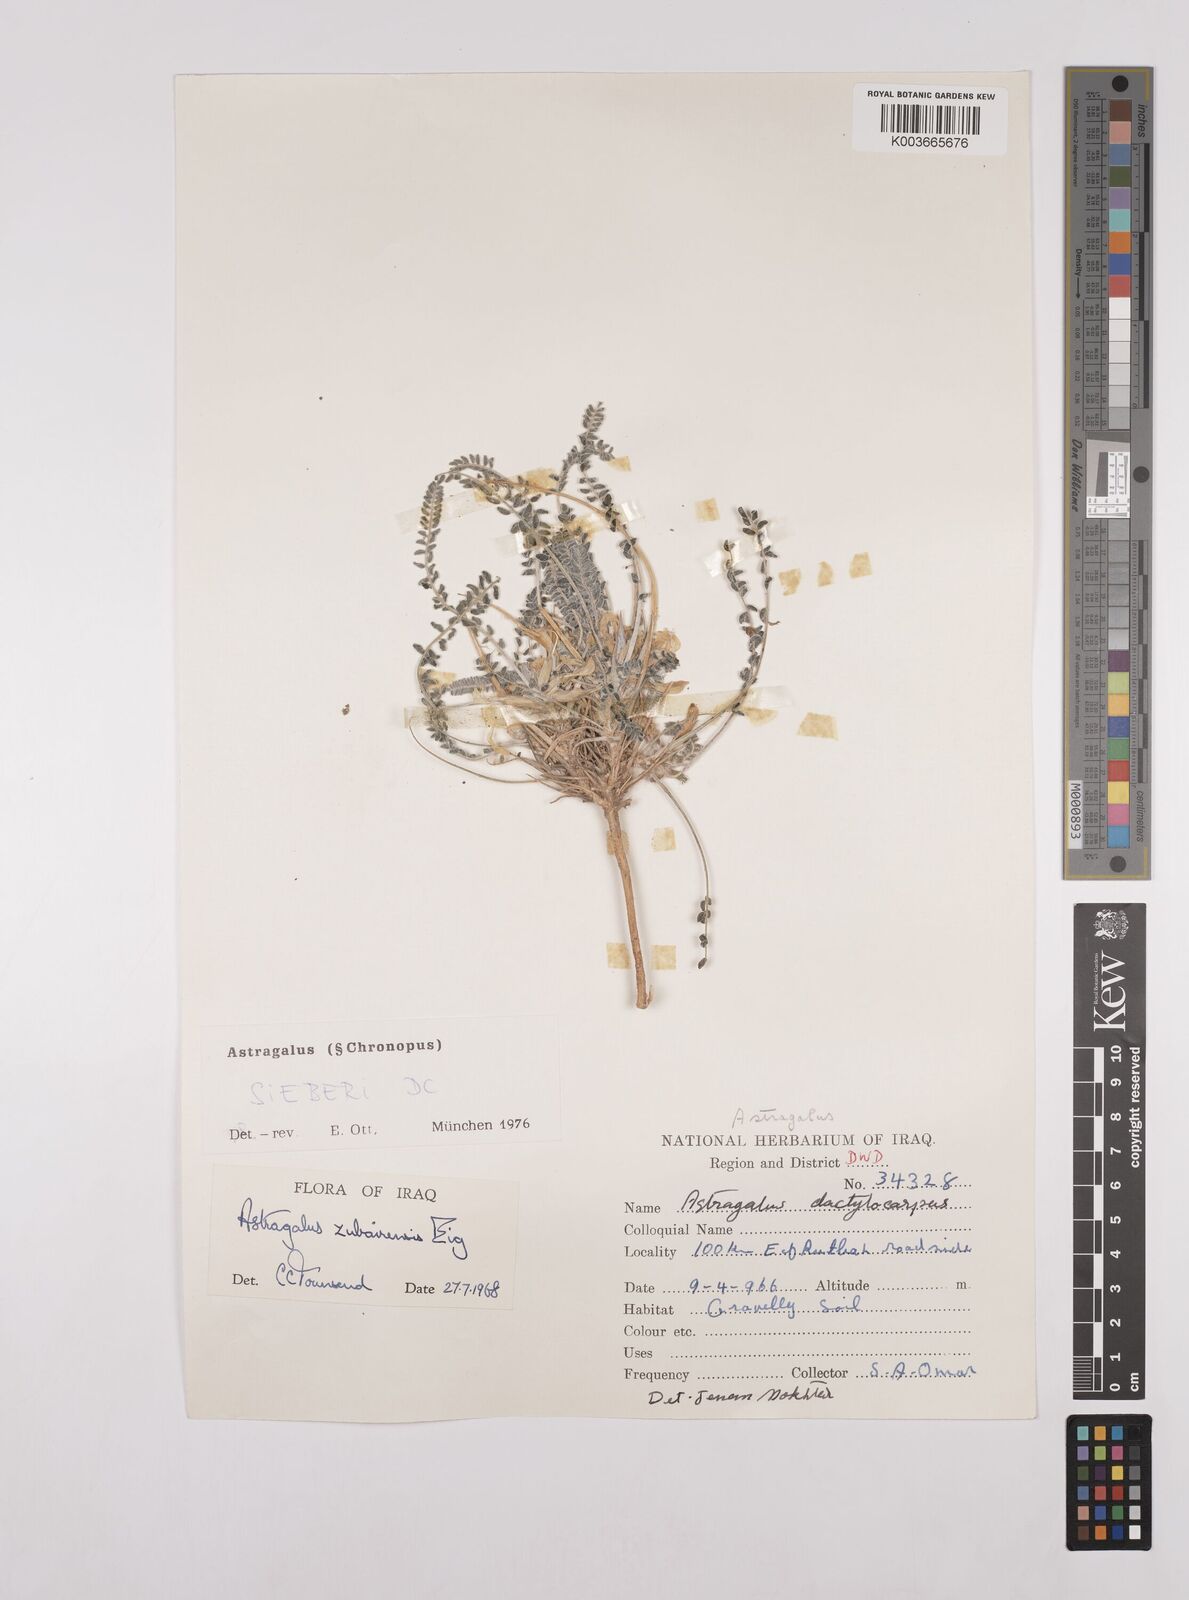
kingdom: Plantae
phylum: Tracheophyta
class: Magnoliopsida
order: Fabales
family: Fabaceae
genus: Astragalus
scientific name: Astragalus sieberi
